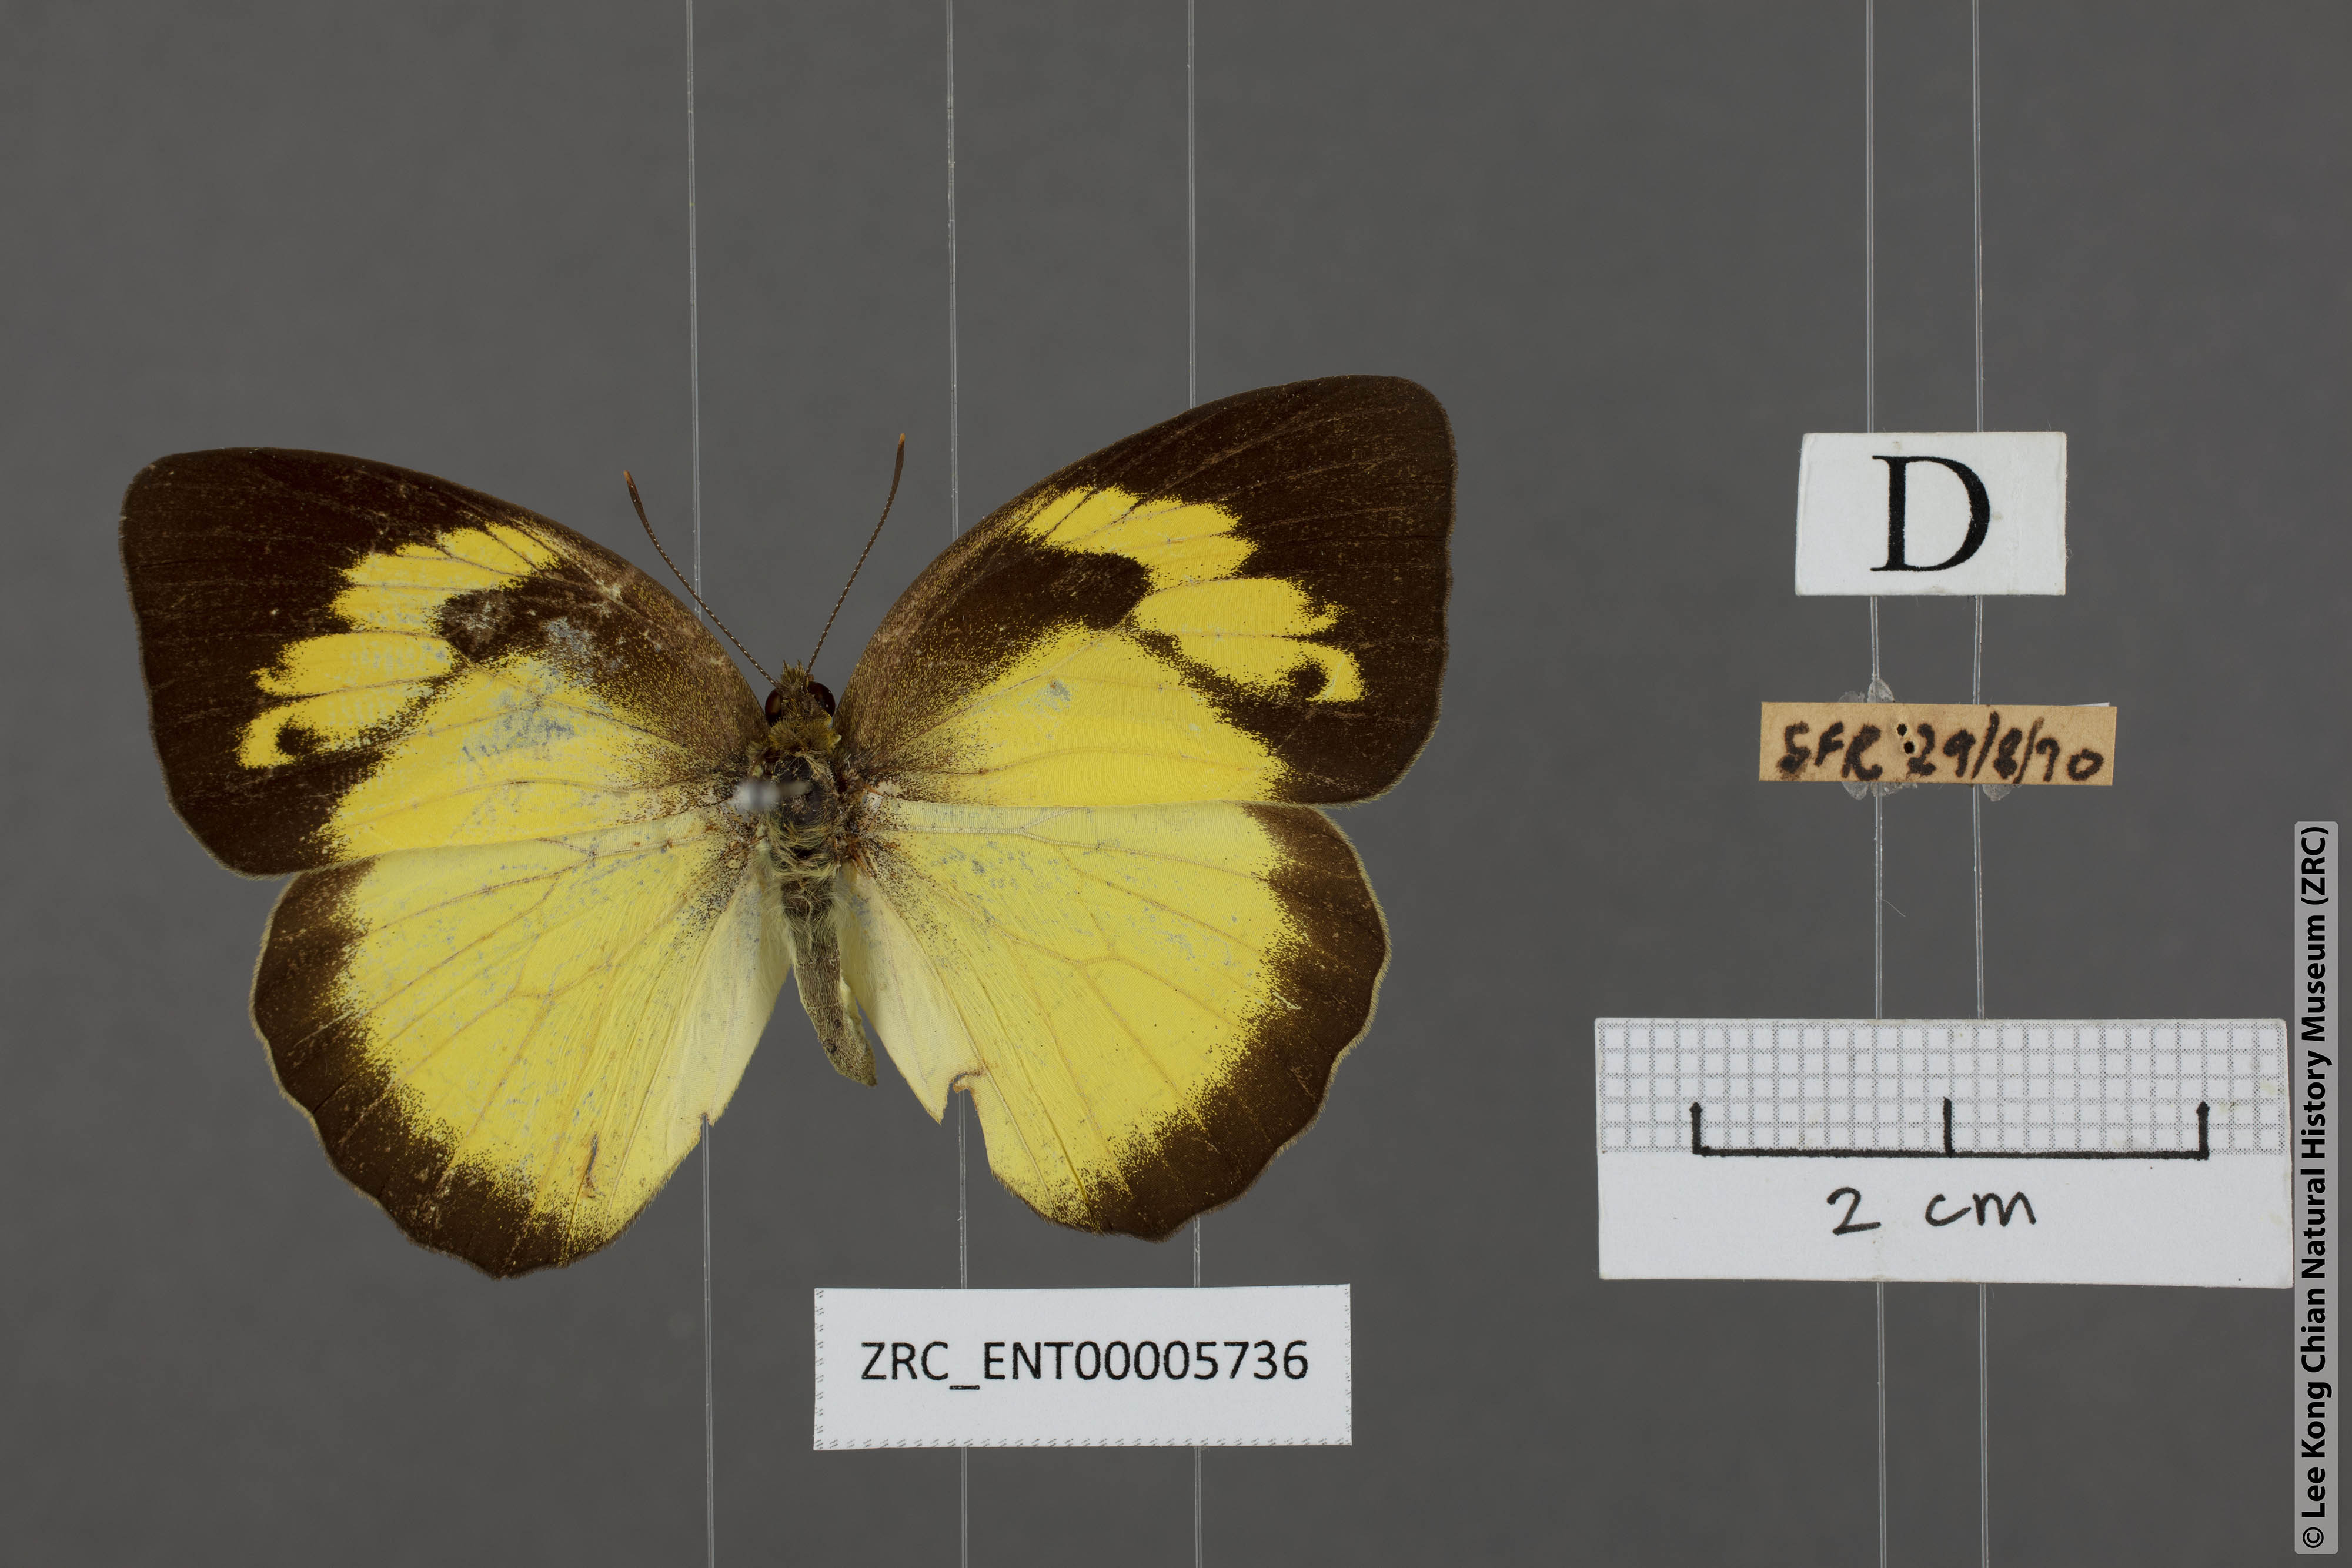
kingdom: Animalia
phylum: Arthropoda
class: Insecta
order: Lepidoptera
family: Pieridae
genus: Ixias
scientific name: Ixias pyrene
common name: Yellow orange tip
